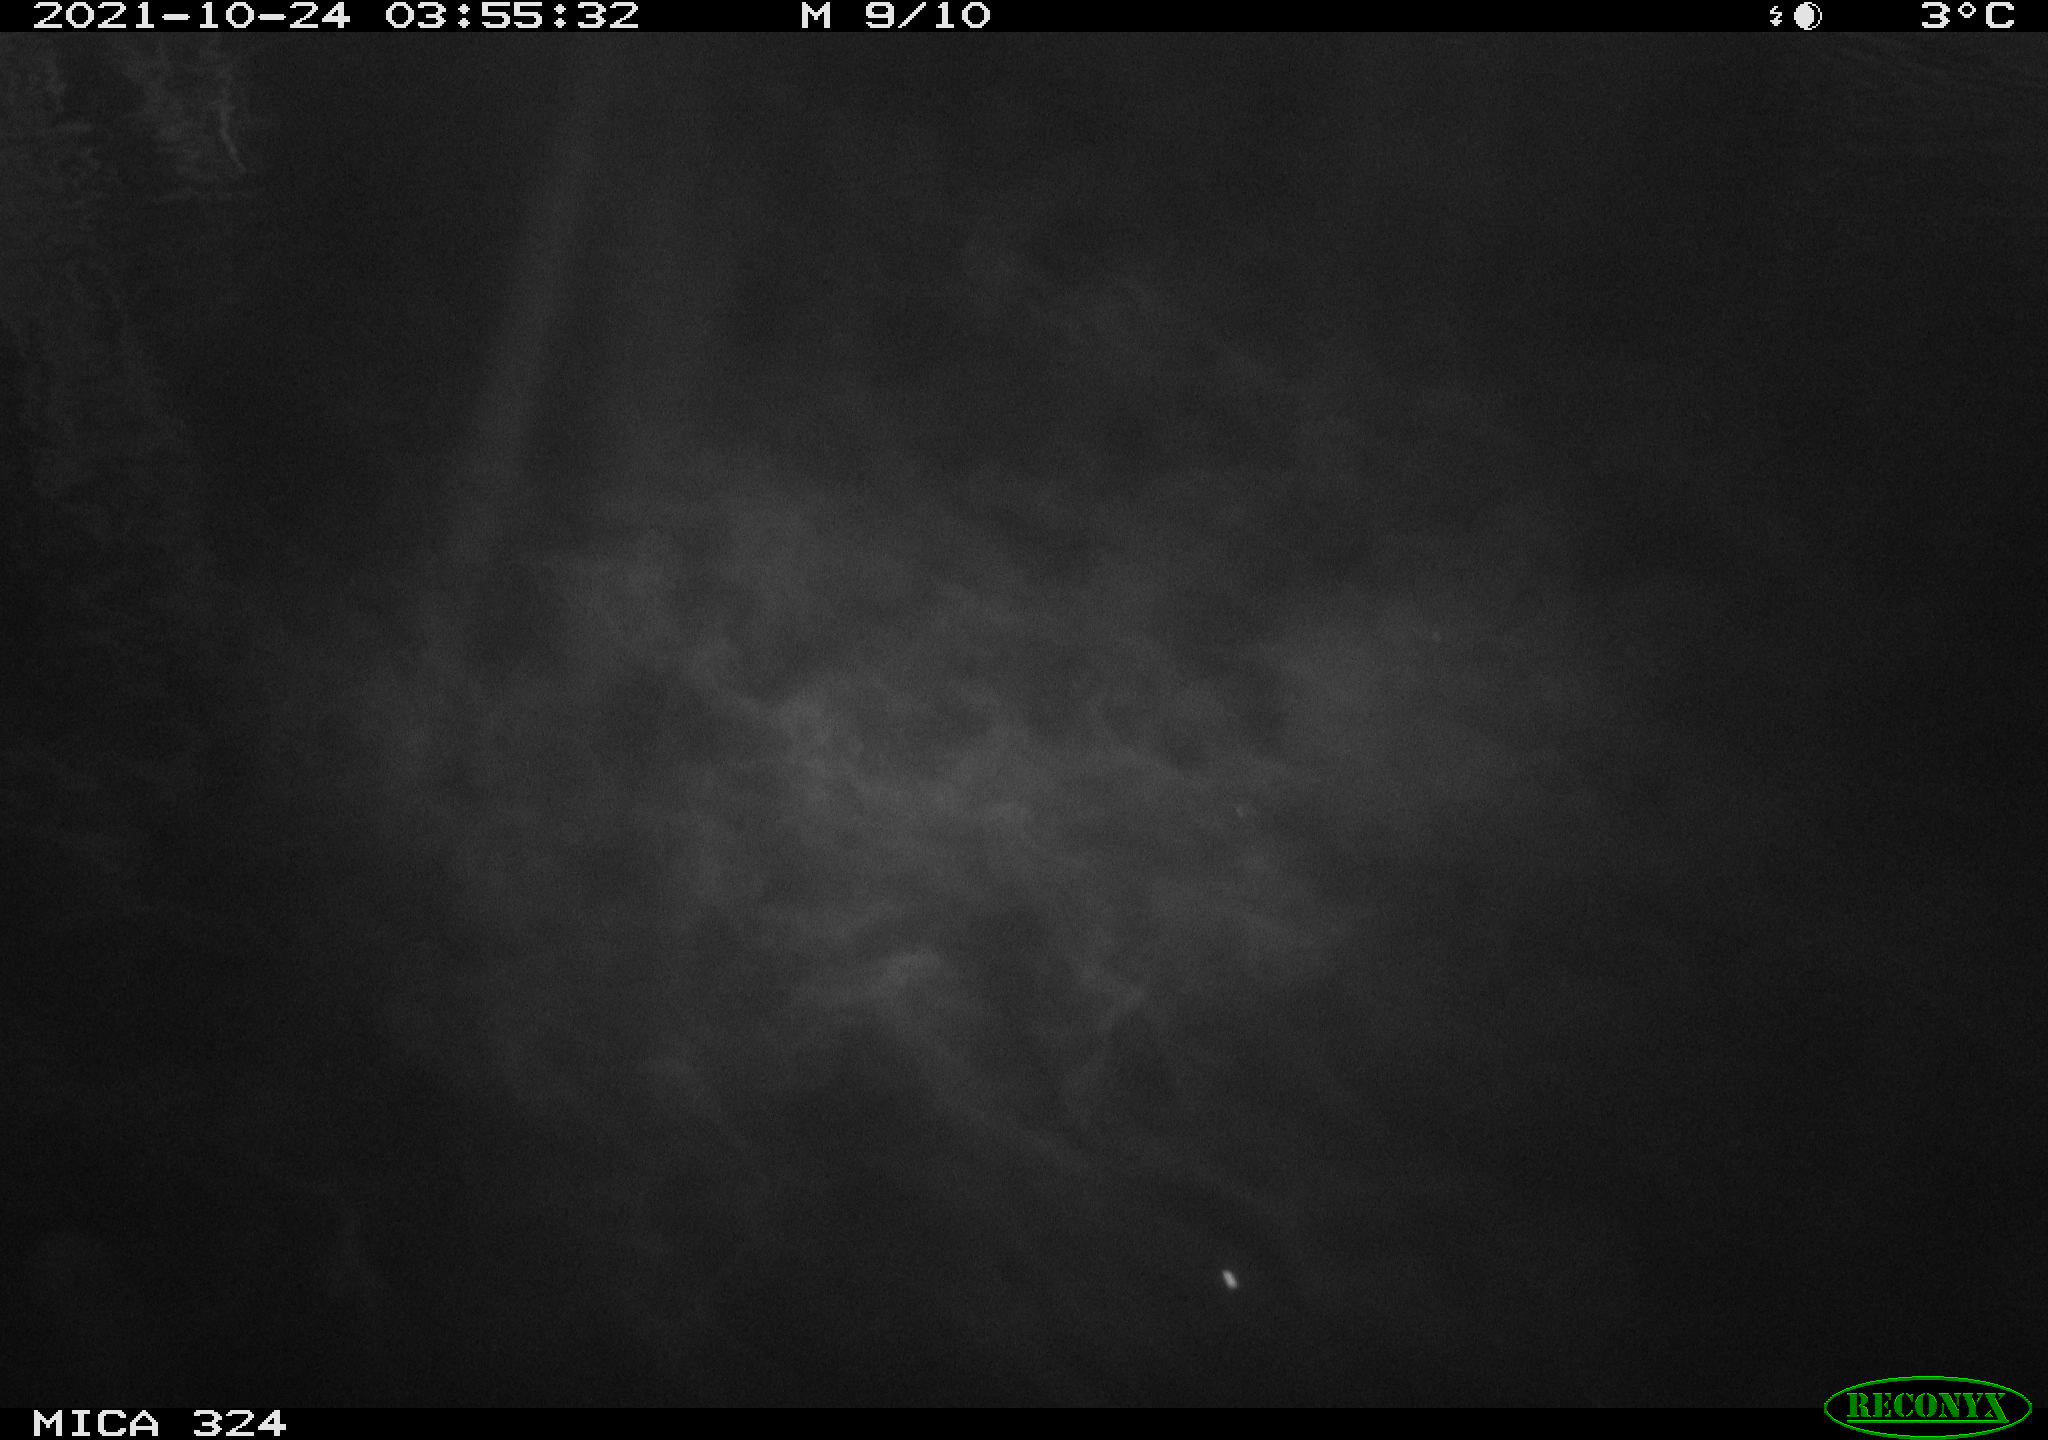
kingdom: Animalia
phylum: Chordata
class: Mammalia
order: Rodentia
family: Cricetidae
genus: Ondatra
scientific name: Ondatra zibethicus
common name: Muskrat
